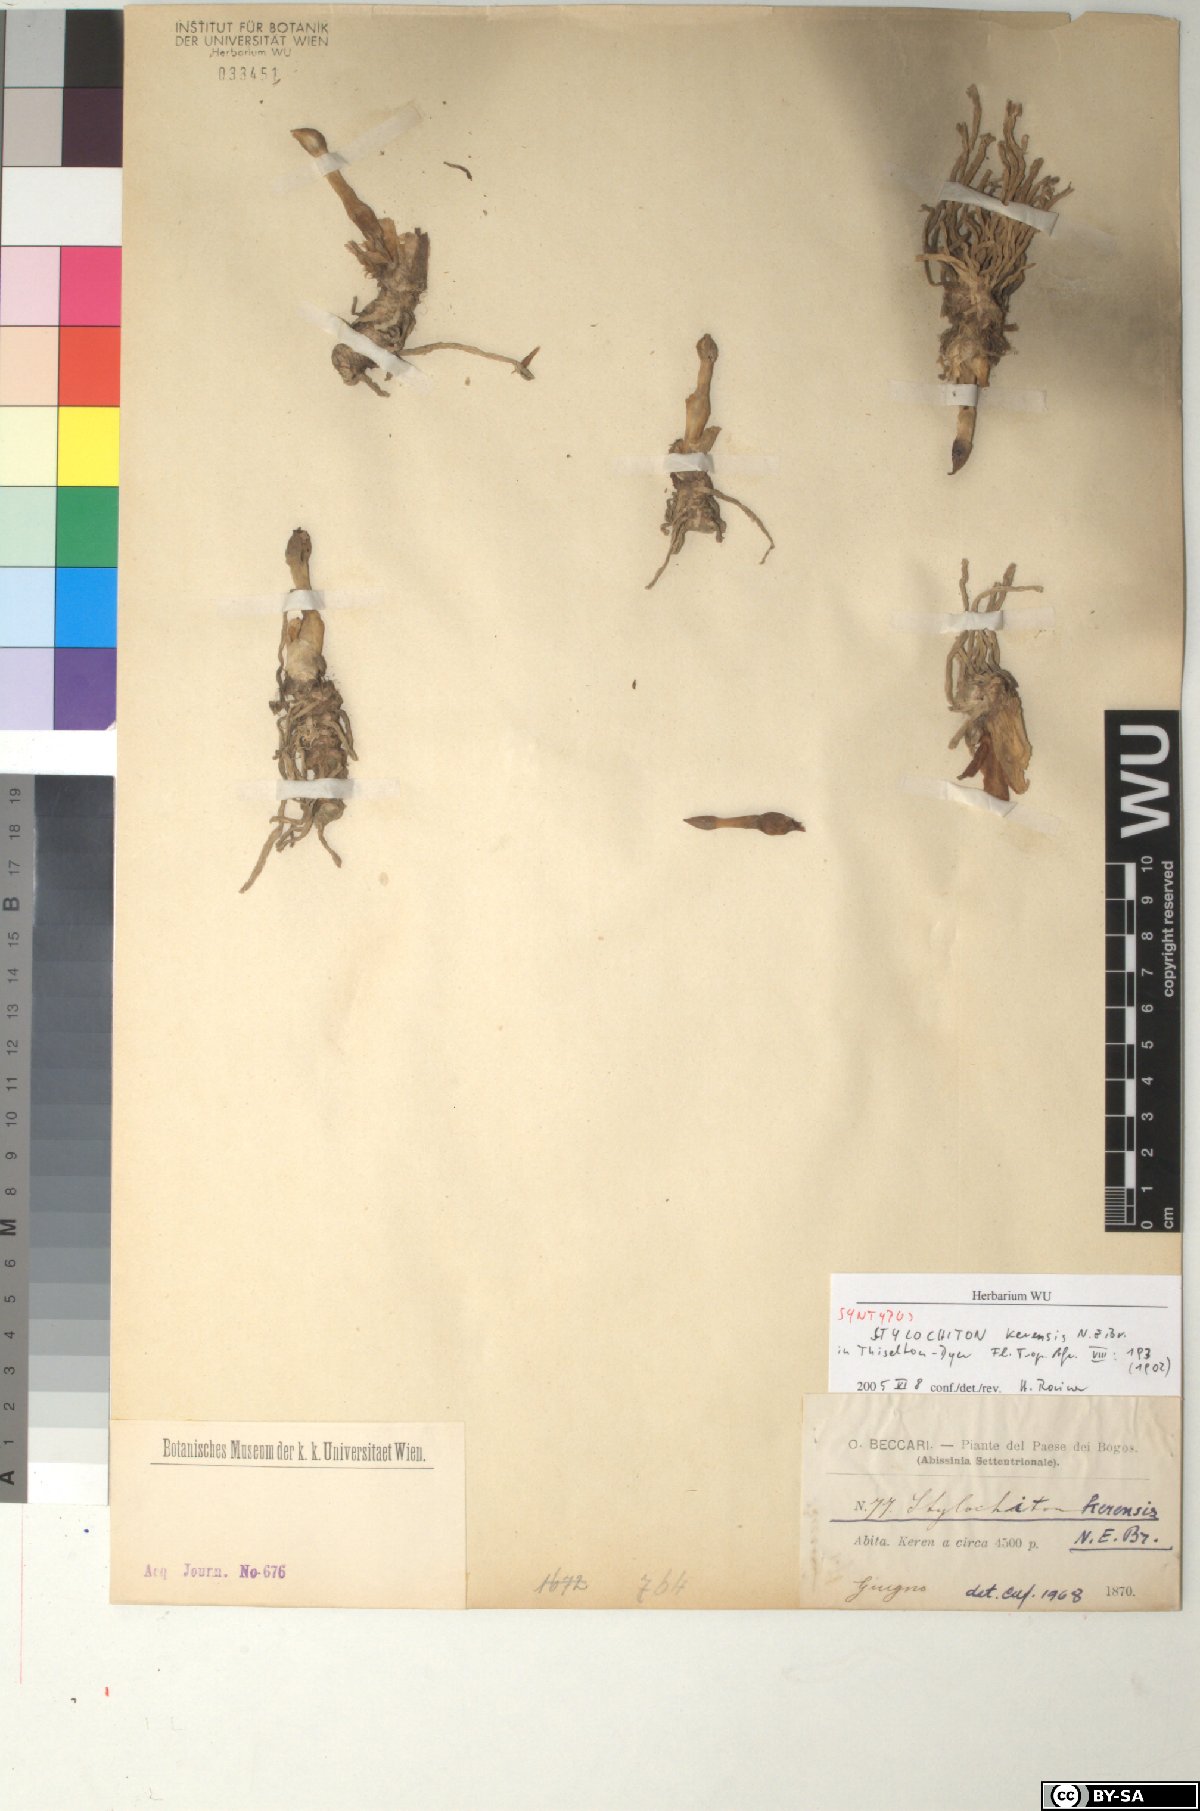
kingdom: Plantae
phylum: Tracheophyta
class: Liliopsida
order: Alismatales
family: Araceae
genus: Stylochaeton
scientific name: Stylochaeton kerensis
